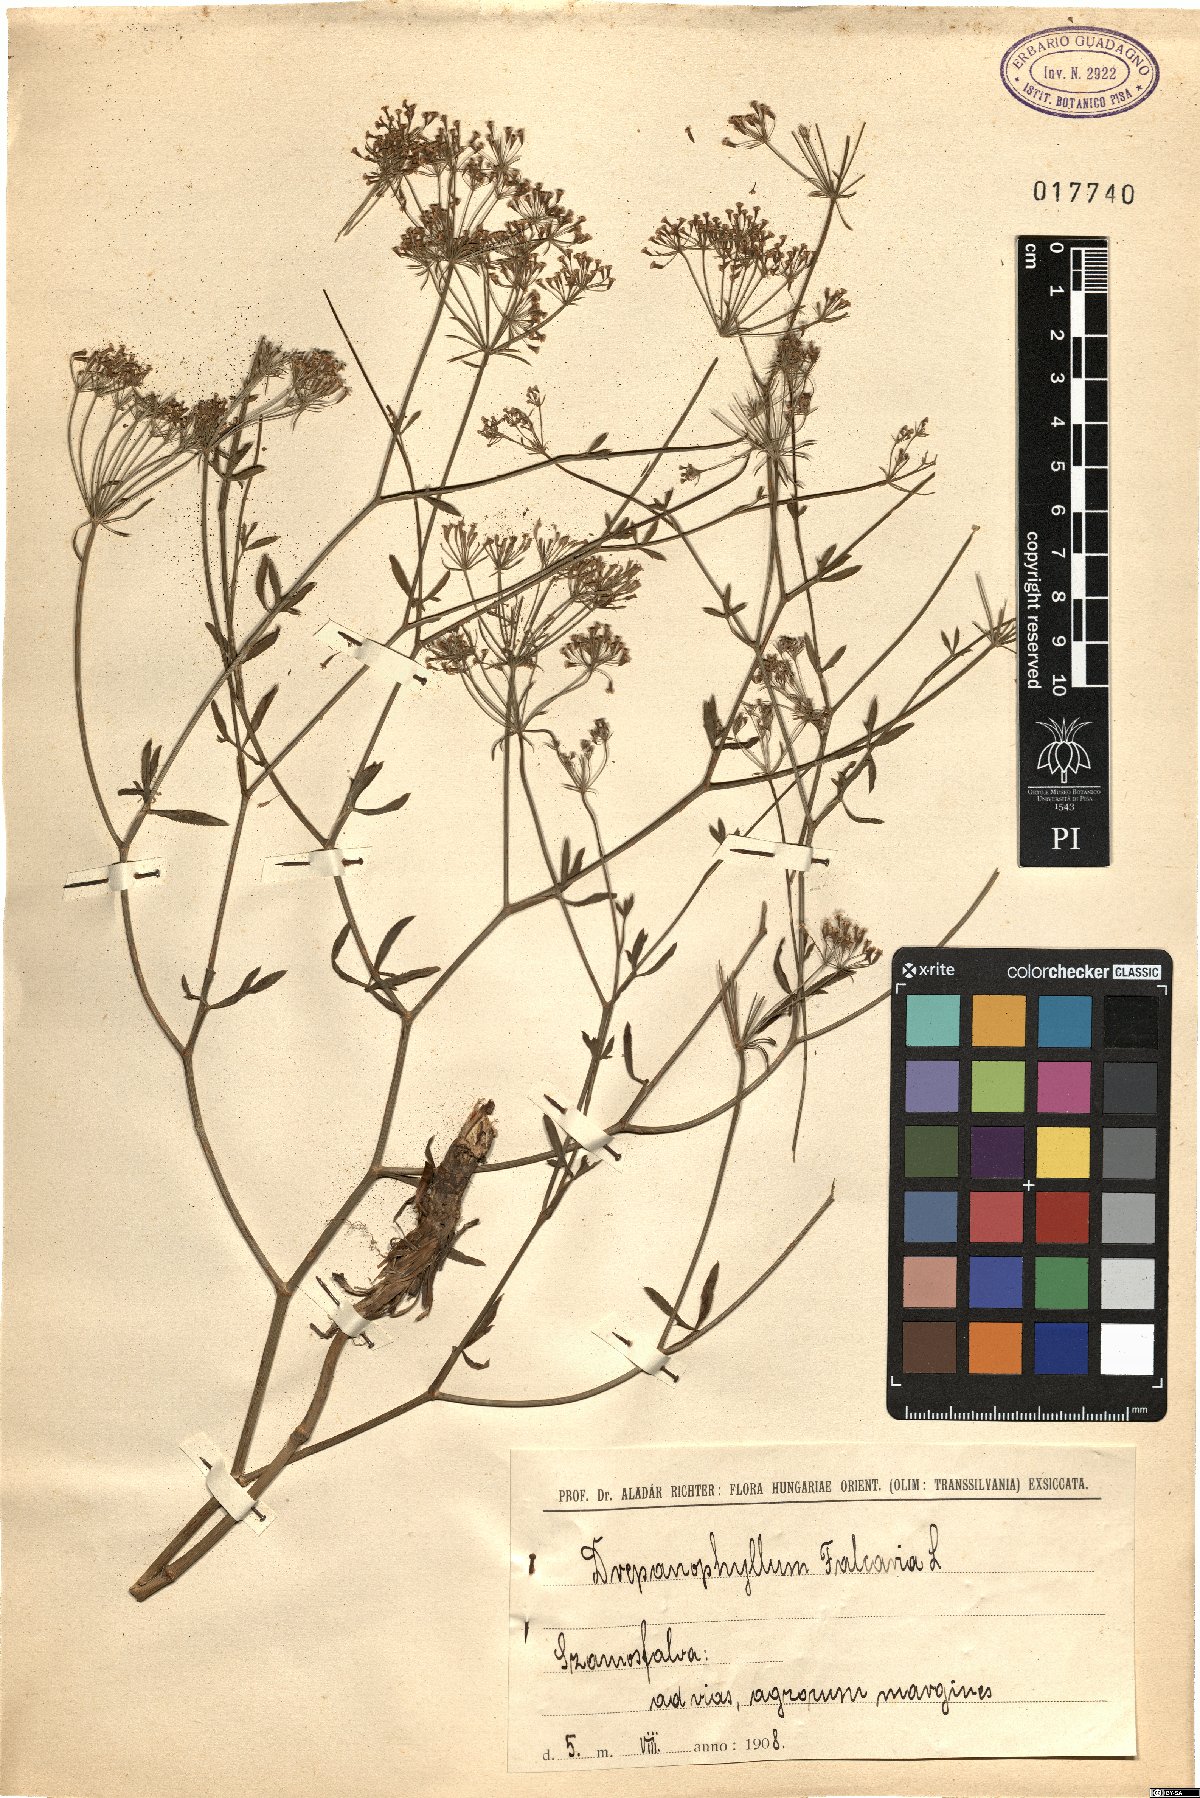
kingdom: Plantae
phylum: Tracheophyta
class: Magnoliopsida
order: Apiales
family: Apiaceae
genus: Falcaria
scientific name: Falcaria vulgaris
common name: Longleaf
